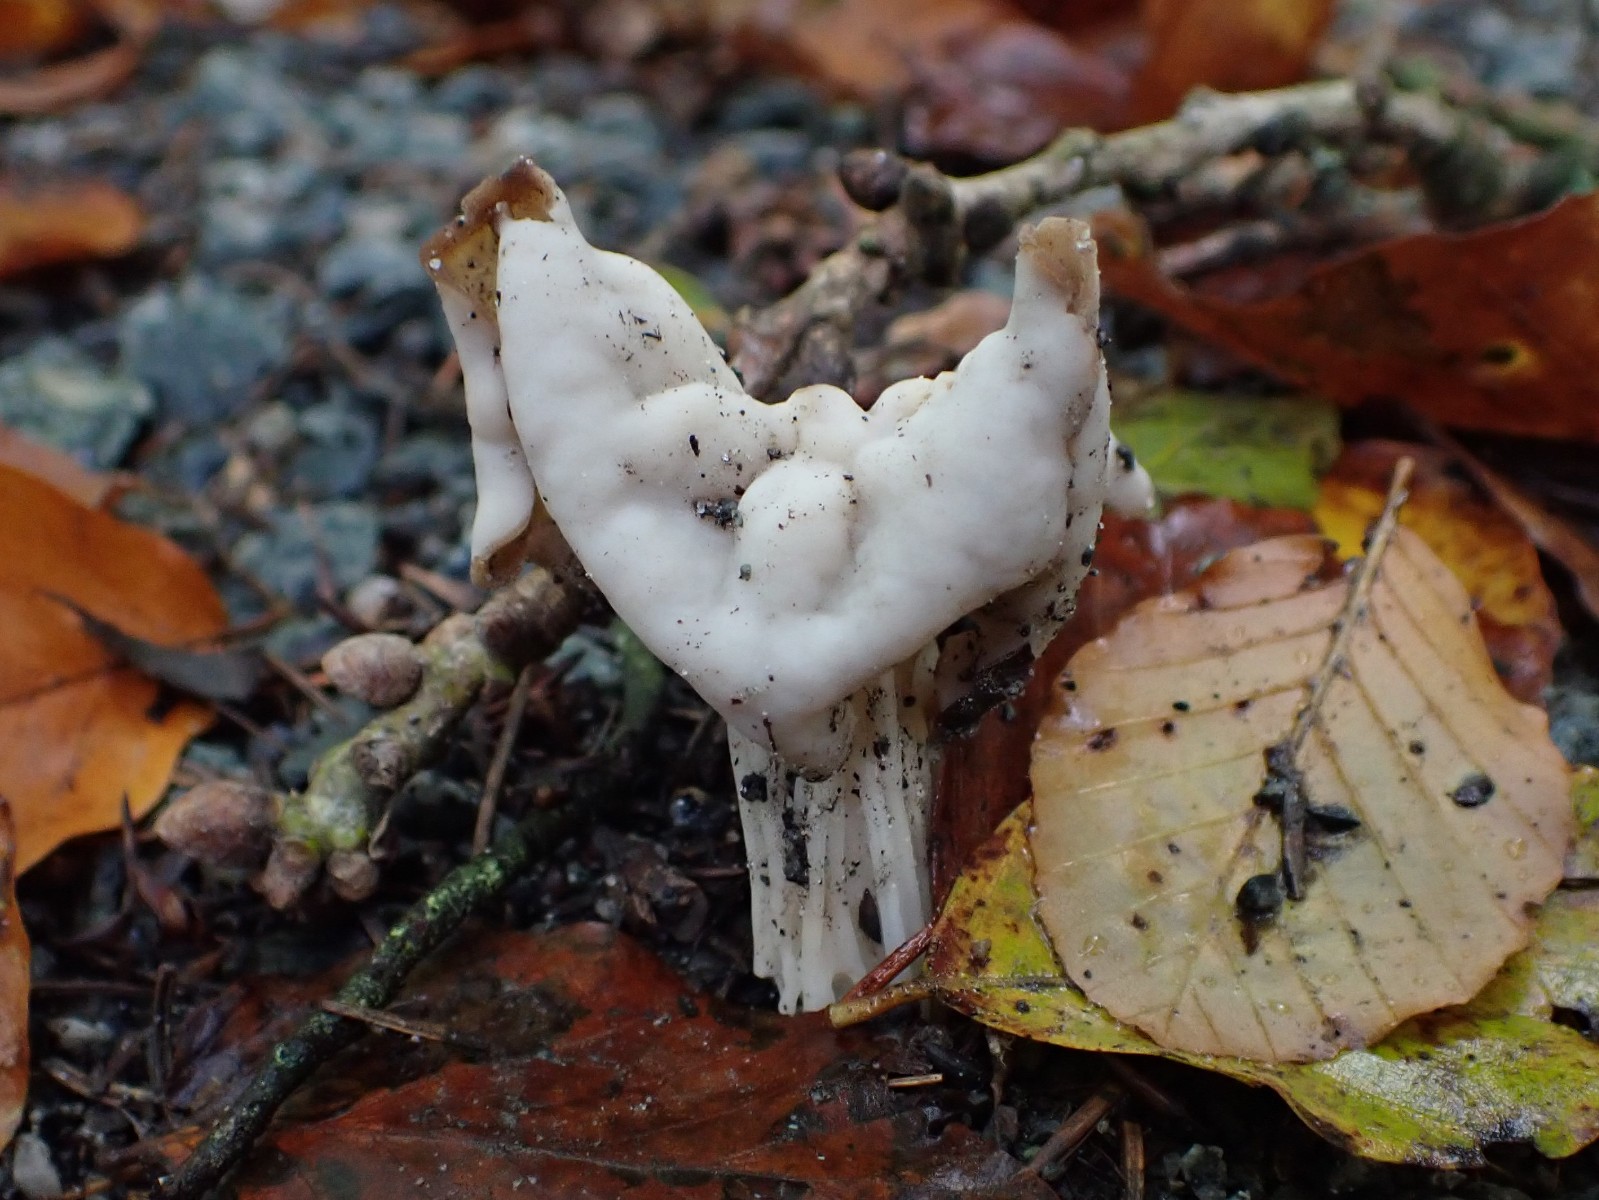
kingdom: Fungi
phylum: Ascomycota
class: Pezizomycetes
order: Pezizales
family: Helvellaceae
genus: Helvella
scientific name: Helvella crispa
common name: kruset foldhat
